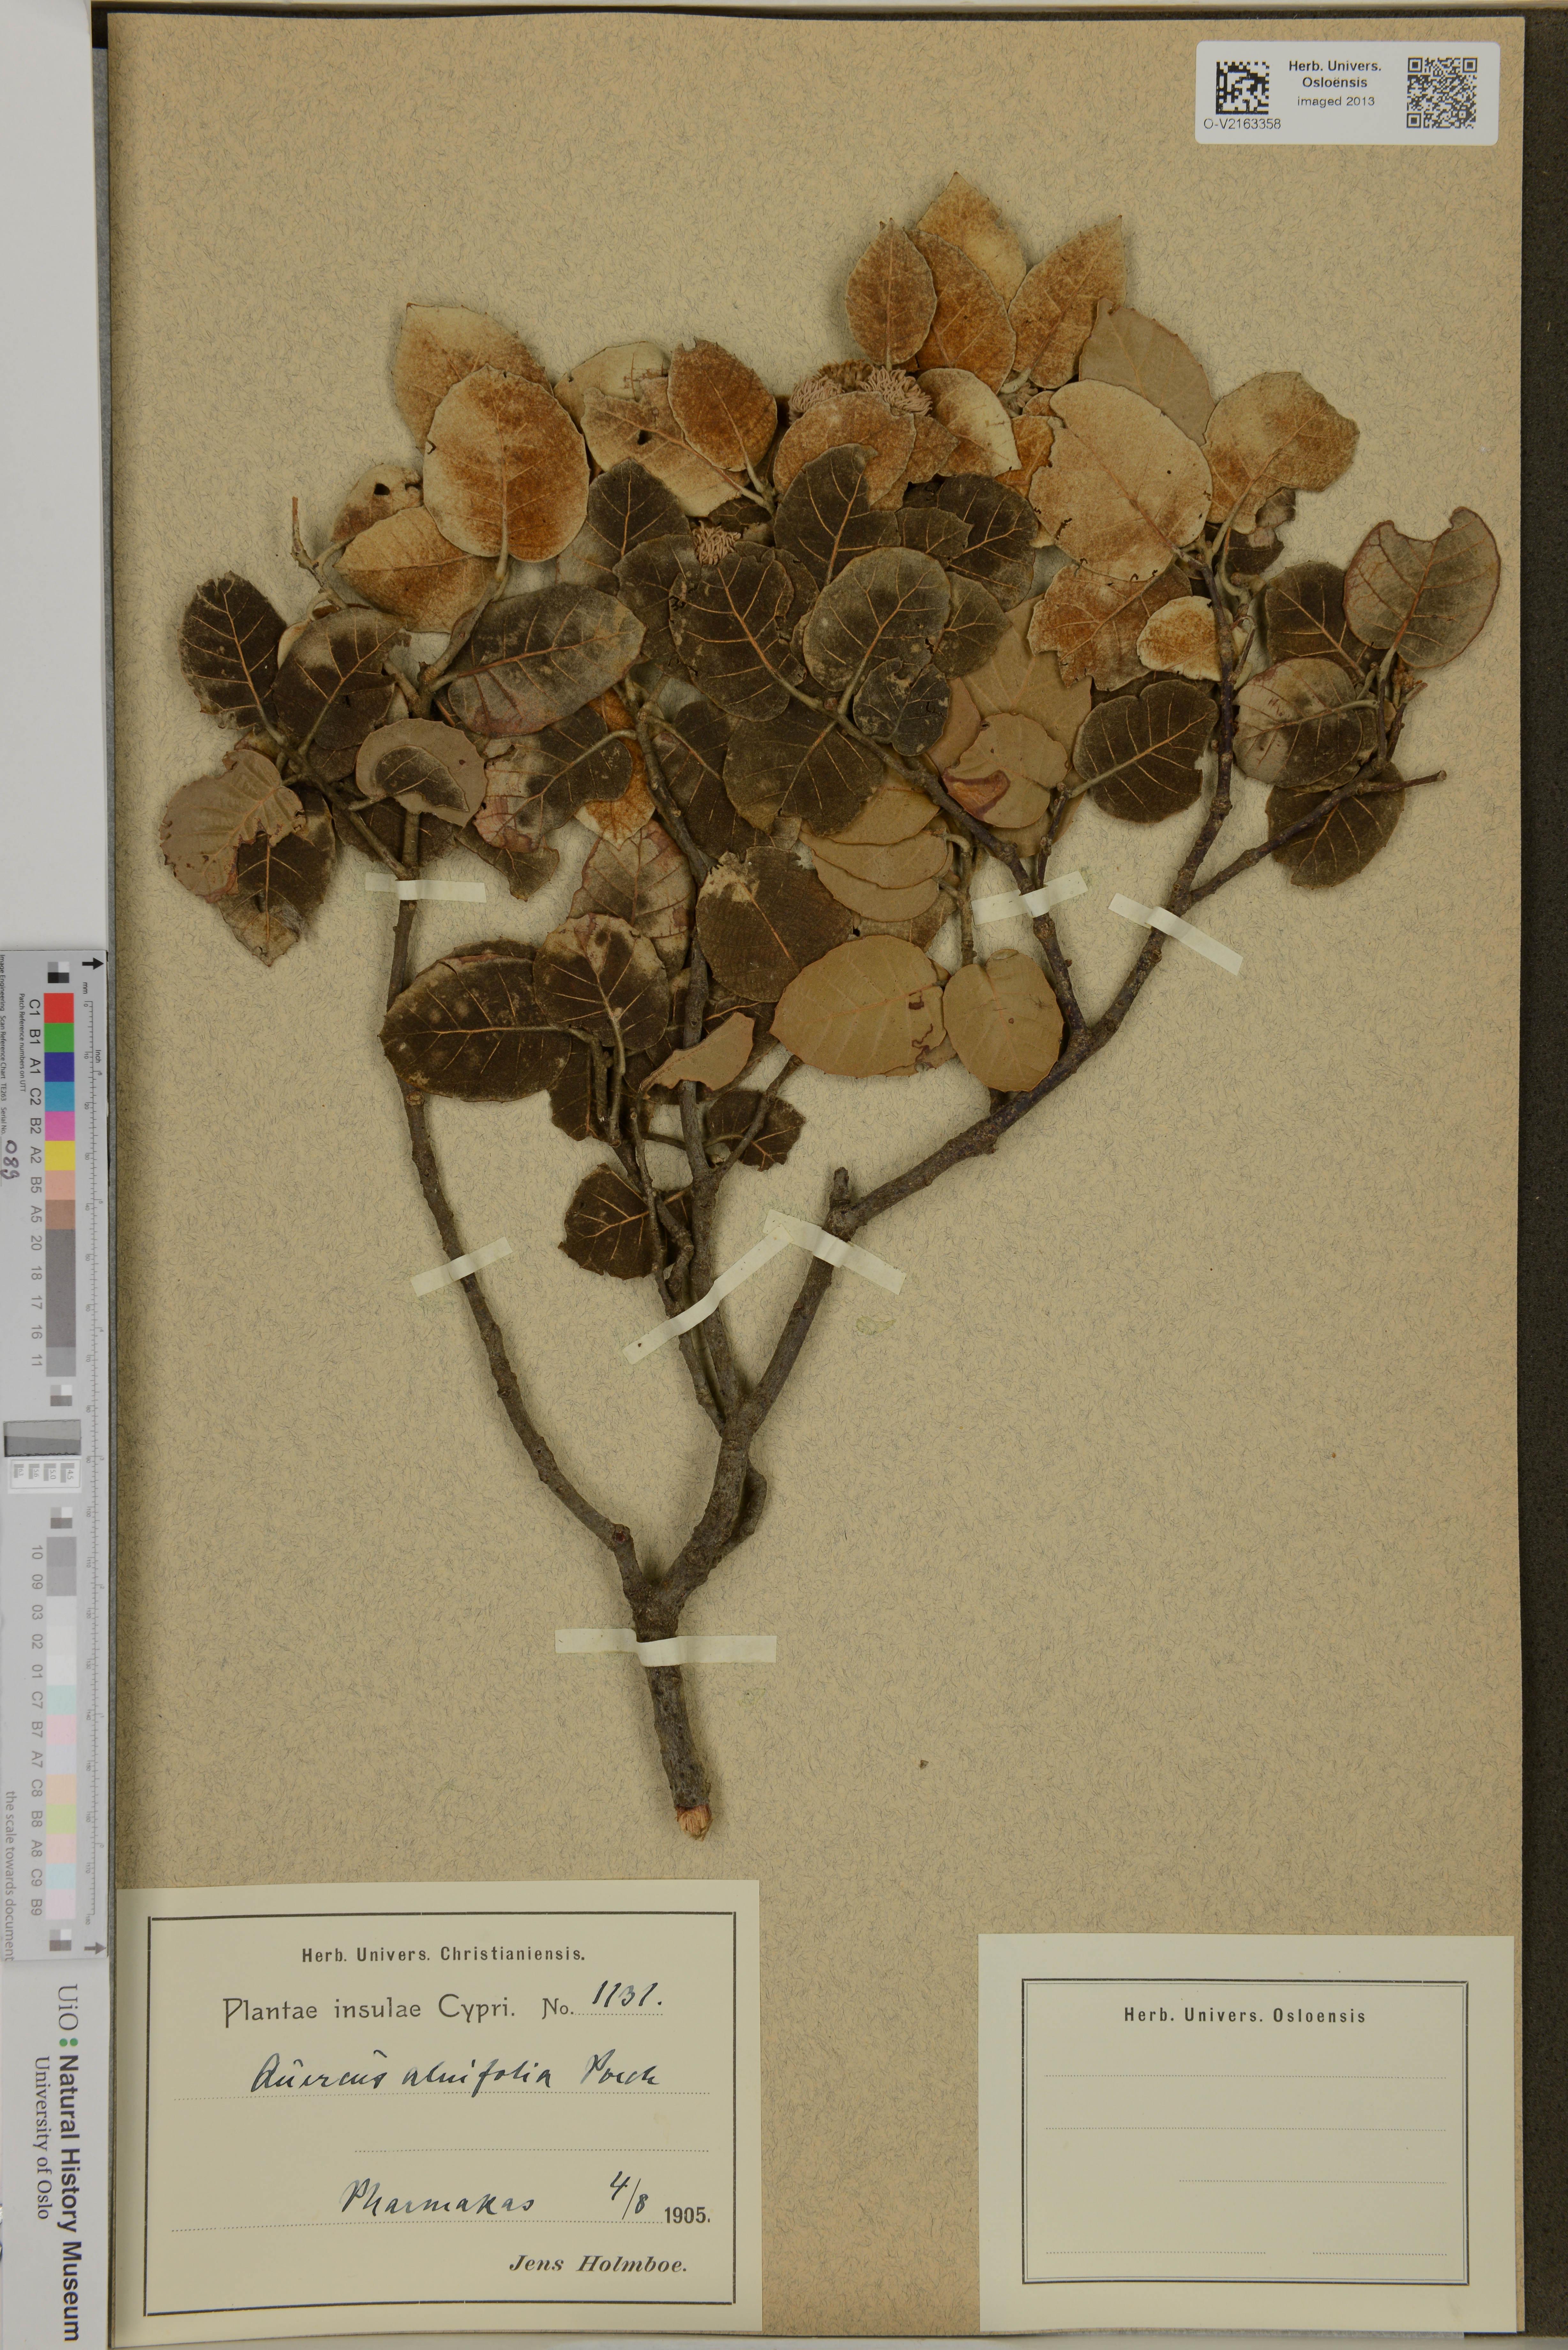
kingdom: Plantae
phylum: Tracheophyta
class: Magnoliopsida
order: Fagales
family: Fagaceae
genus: Quercus
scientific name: Quercus alnifolia
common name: Golden oak
